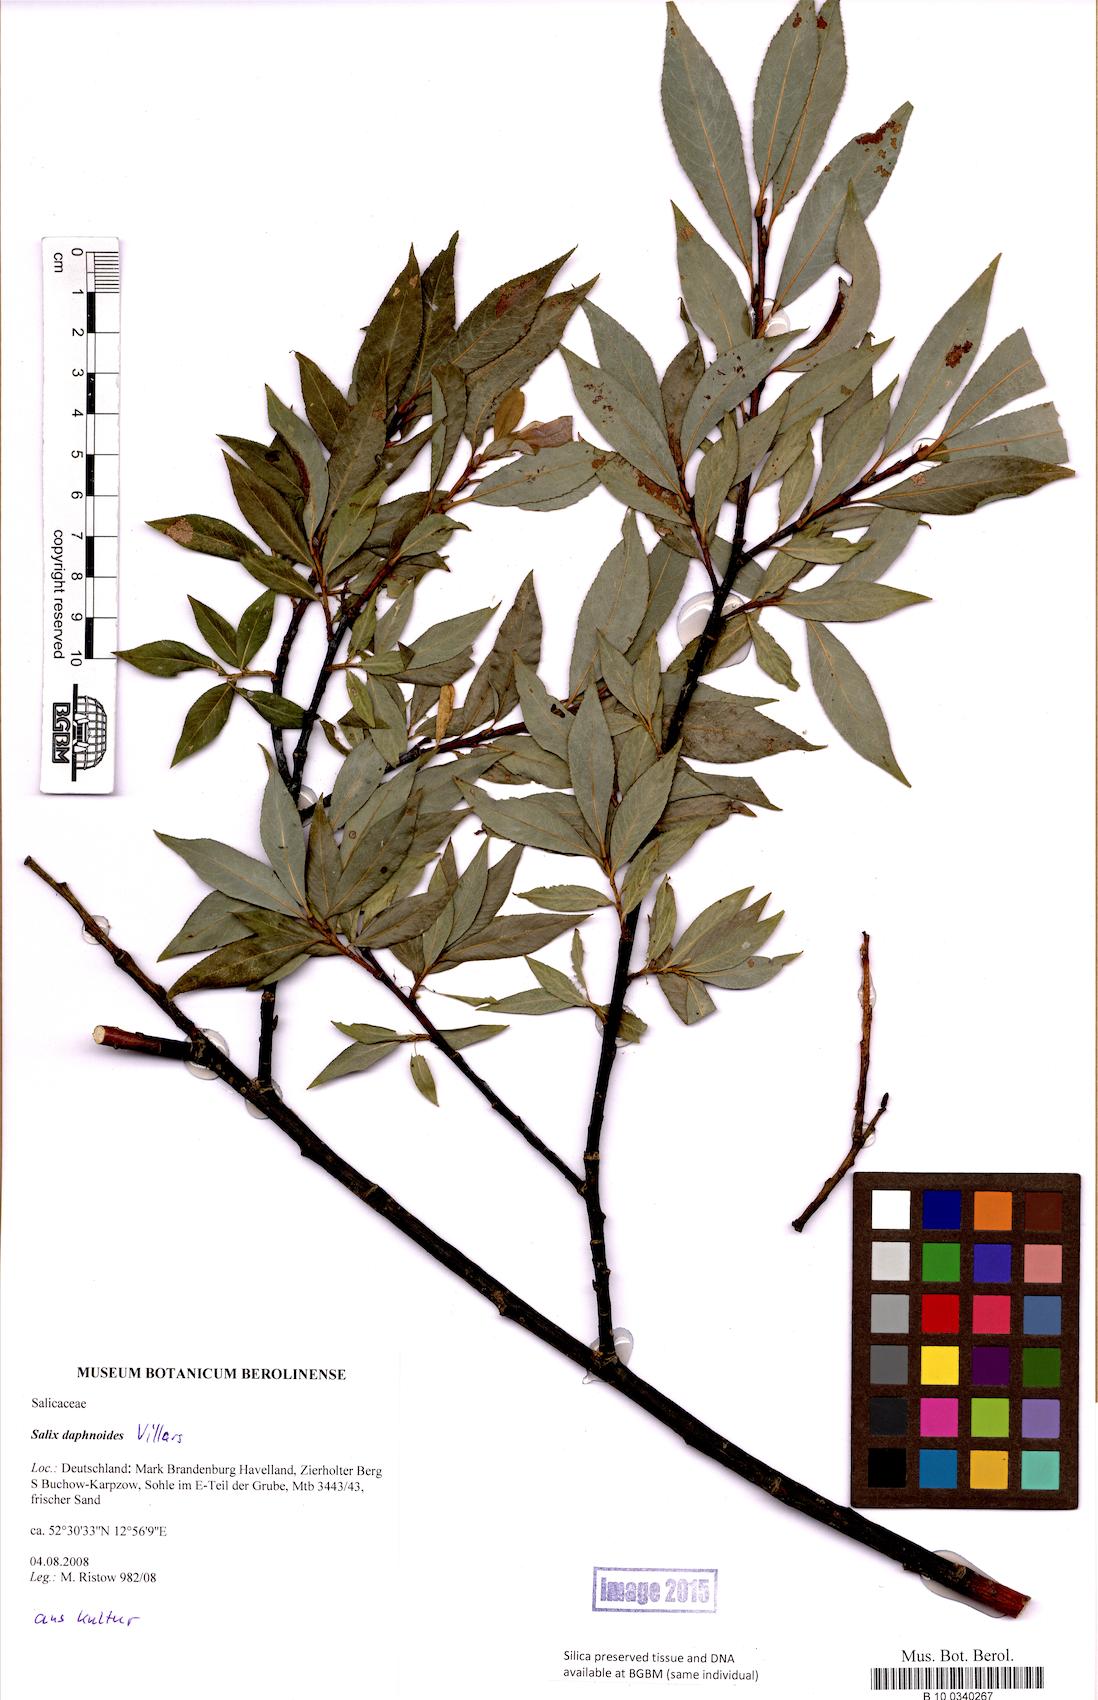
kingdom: Plantae
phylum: Tracheophyta
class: Magnoliopsida
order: Malpighiales
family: Salicaceae
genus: Salix
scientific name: Salix daphnoides
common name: European violet-willow
